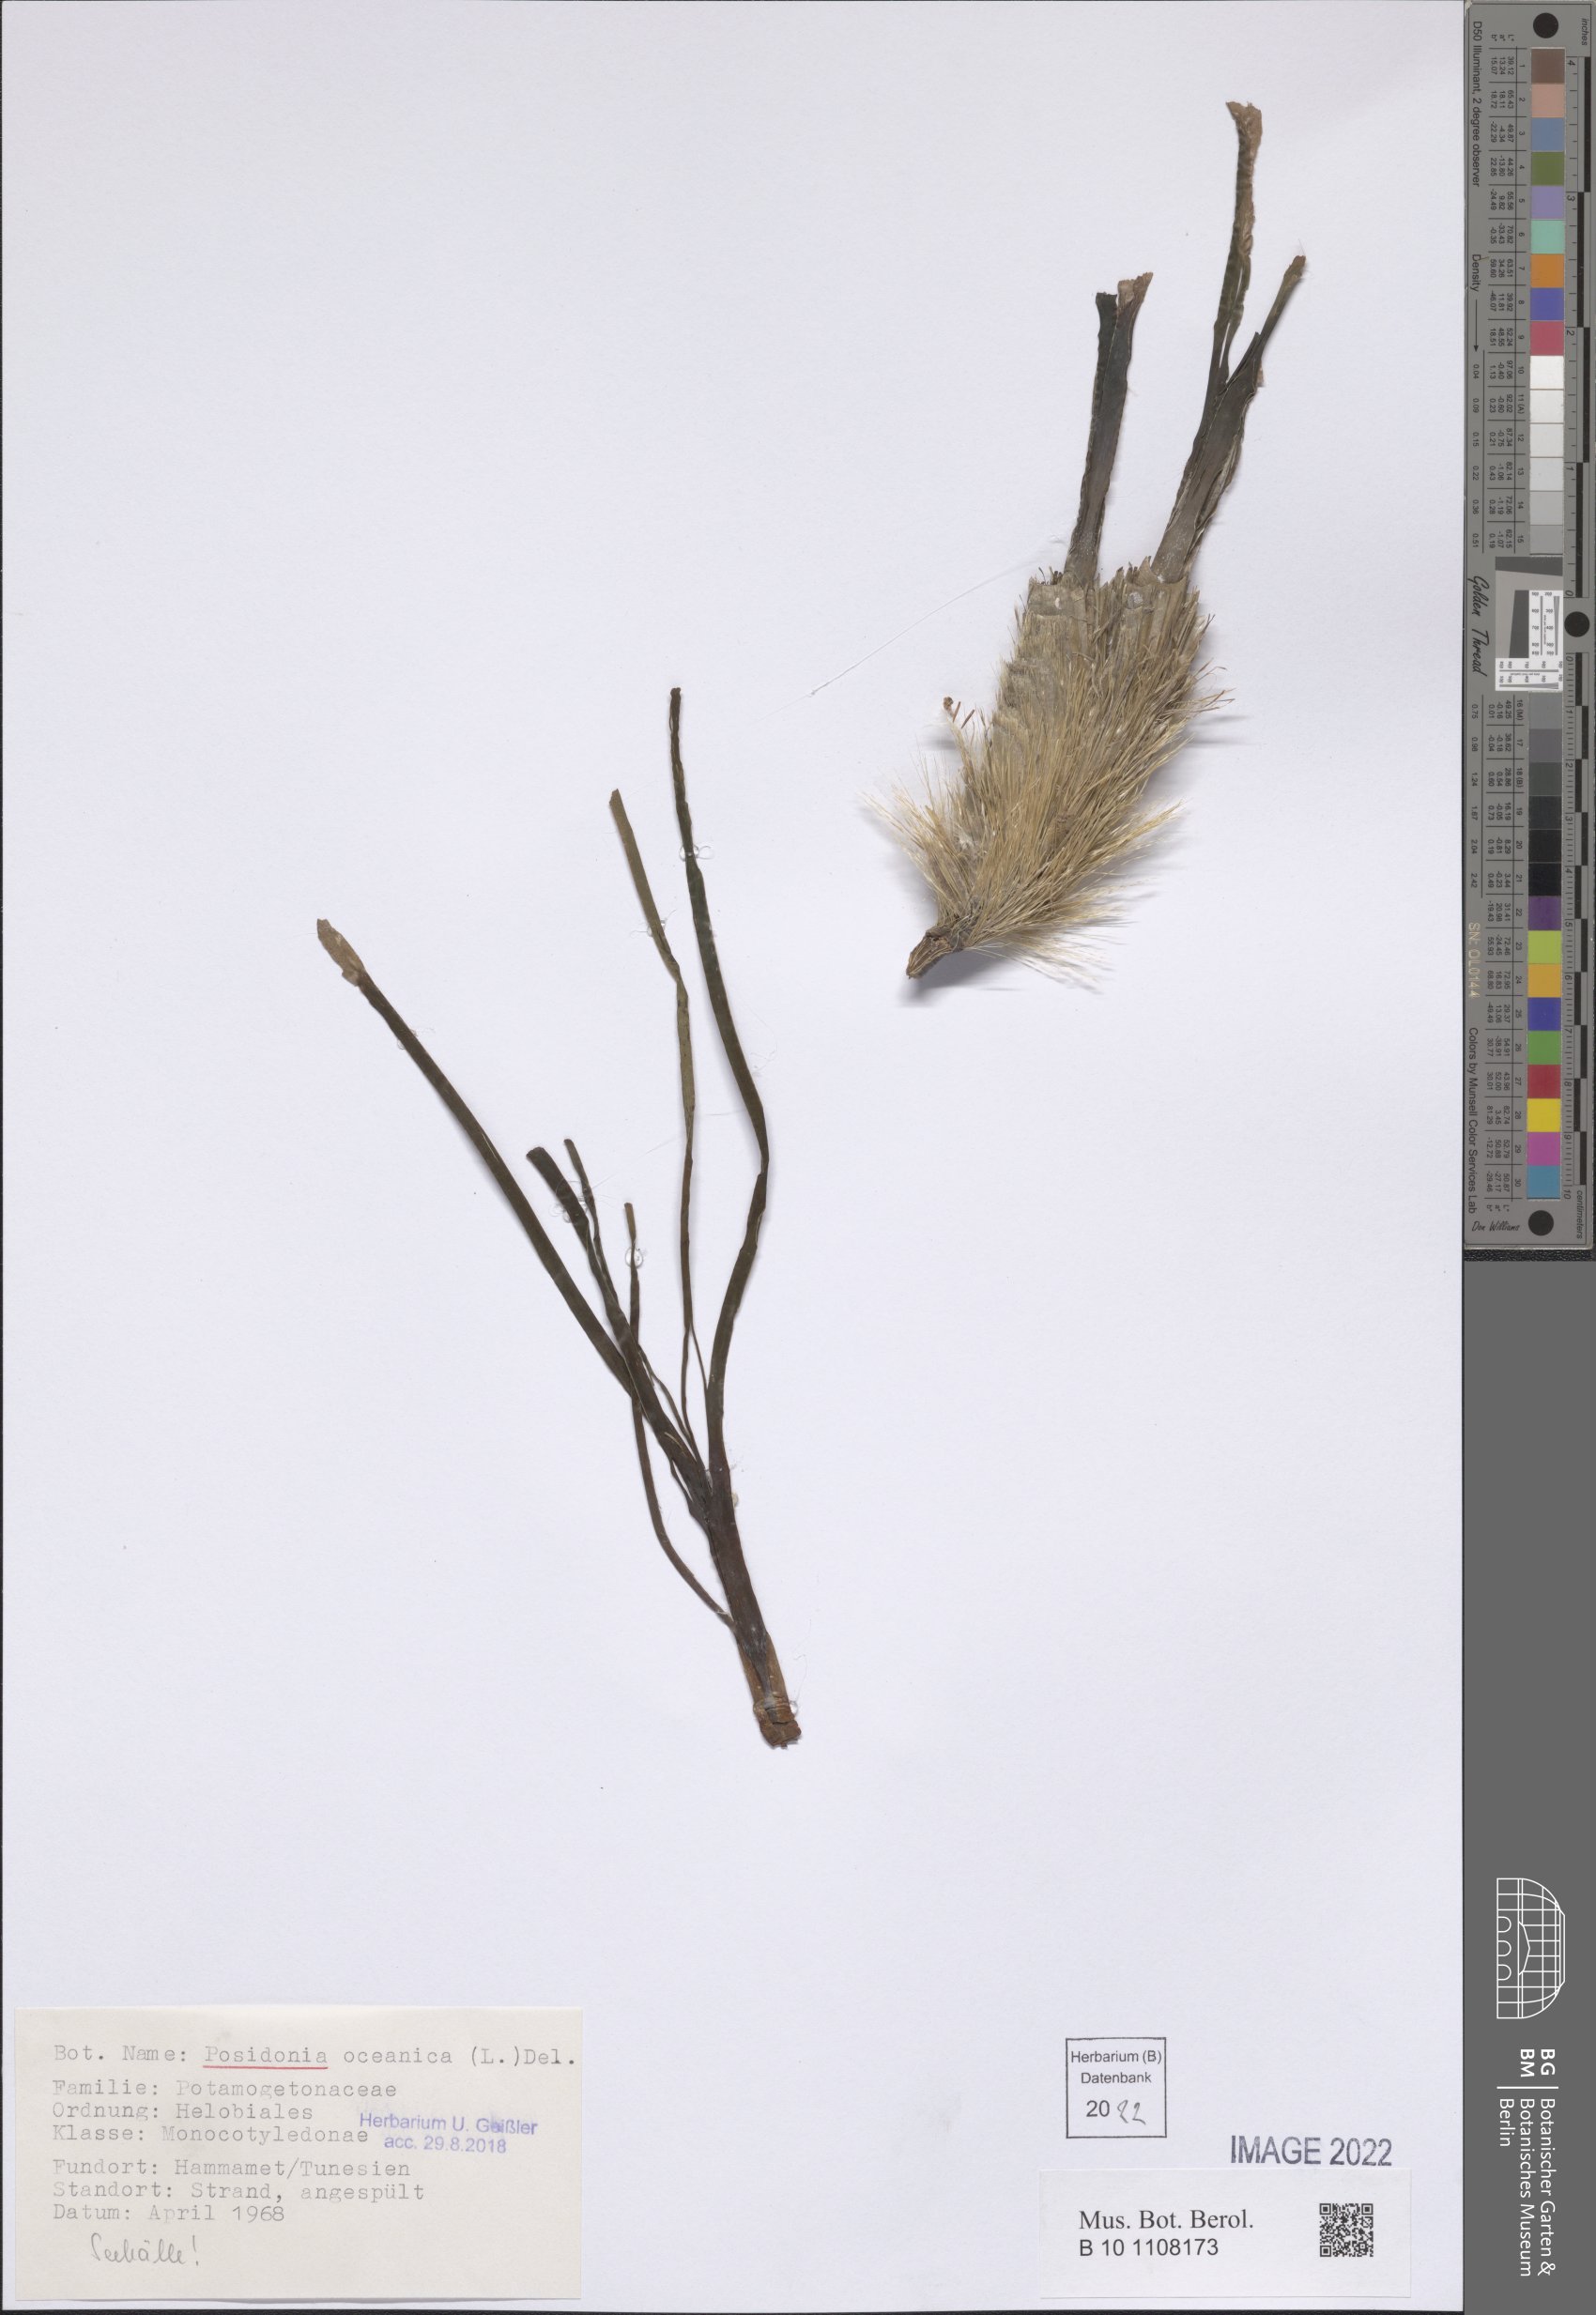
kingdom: Plantae
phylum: Tracheophyta
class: Liliopsida
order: Alismatales
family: Posidoniaceae
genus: Posidonia
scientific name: Posidonia oceanica
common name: Mediterranean tapeweed
